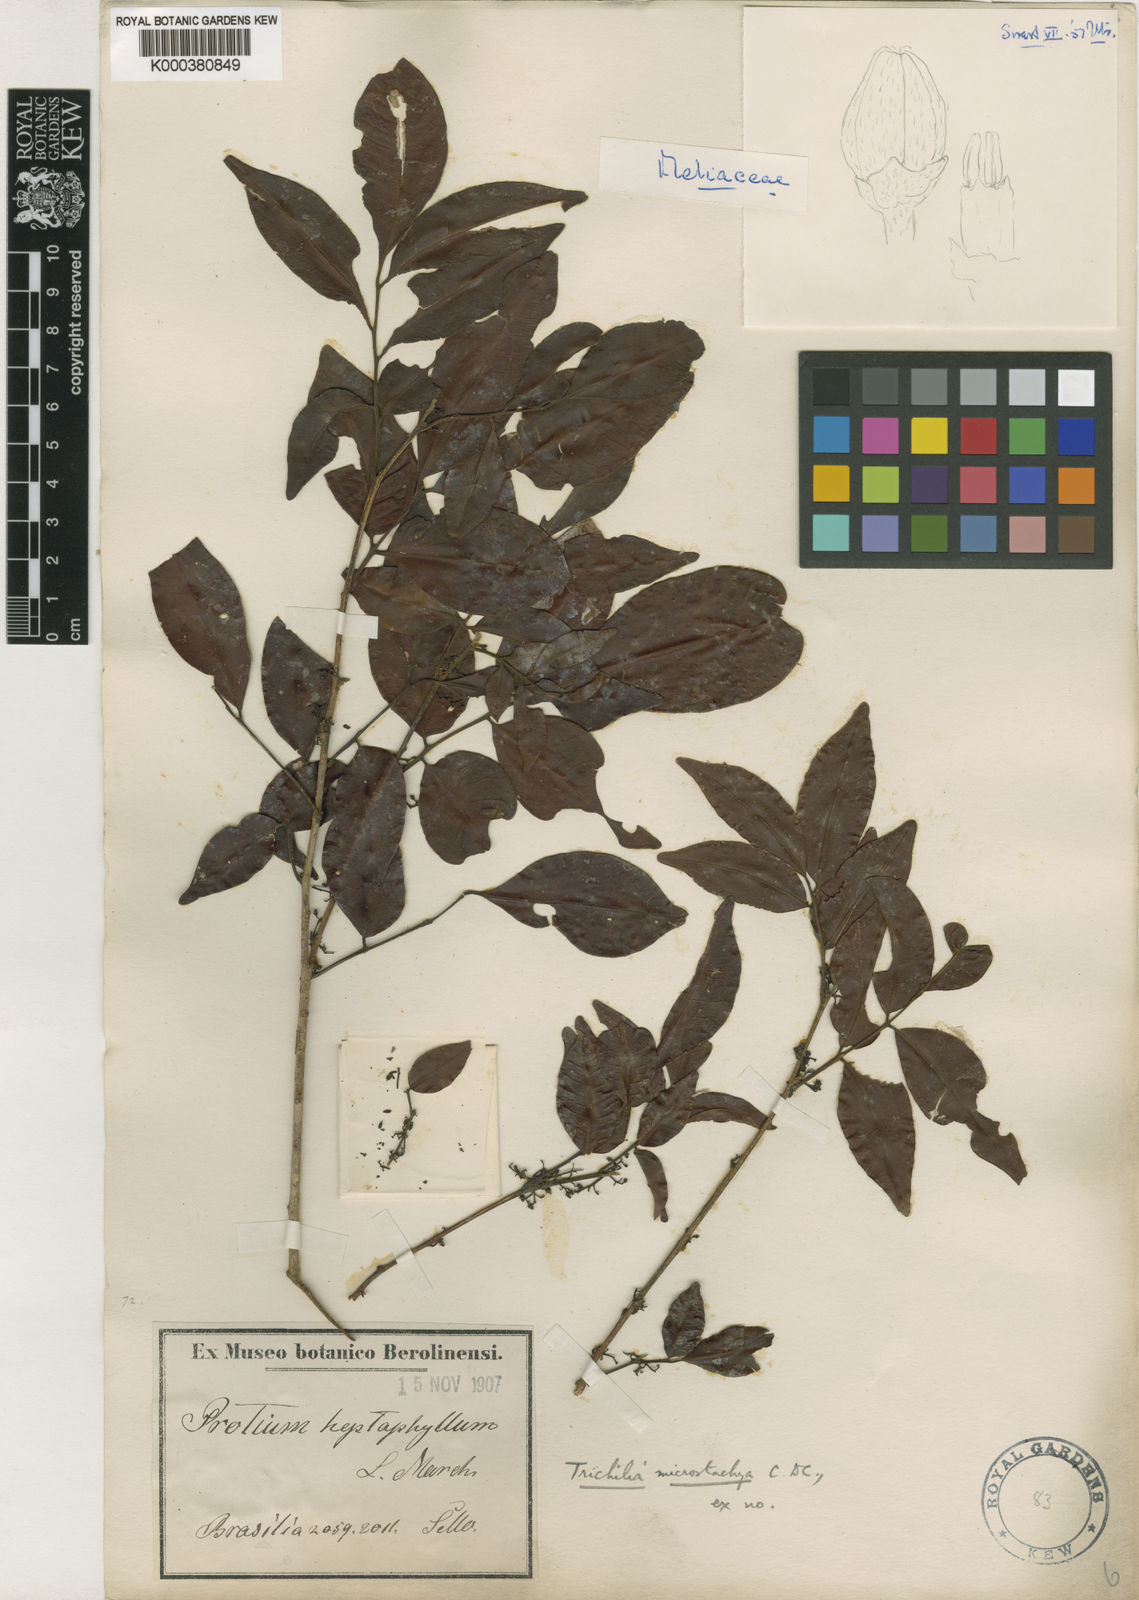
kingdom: Plantae
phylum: Tracheophyta
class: Magnoliopsida
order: Sapindales
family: Meliaceae
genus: Trichilia
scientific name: Trichilia pseudostipularis
